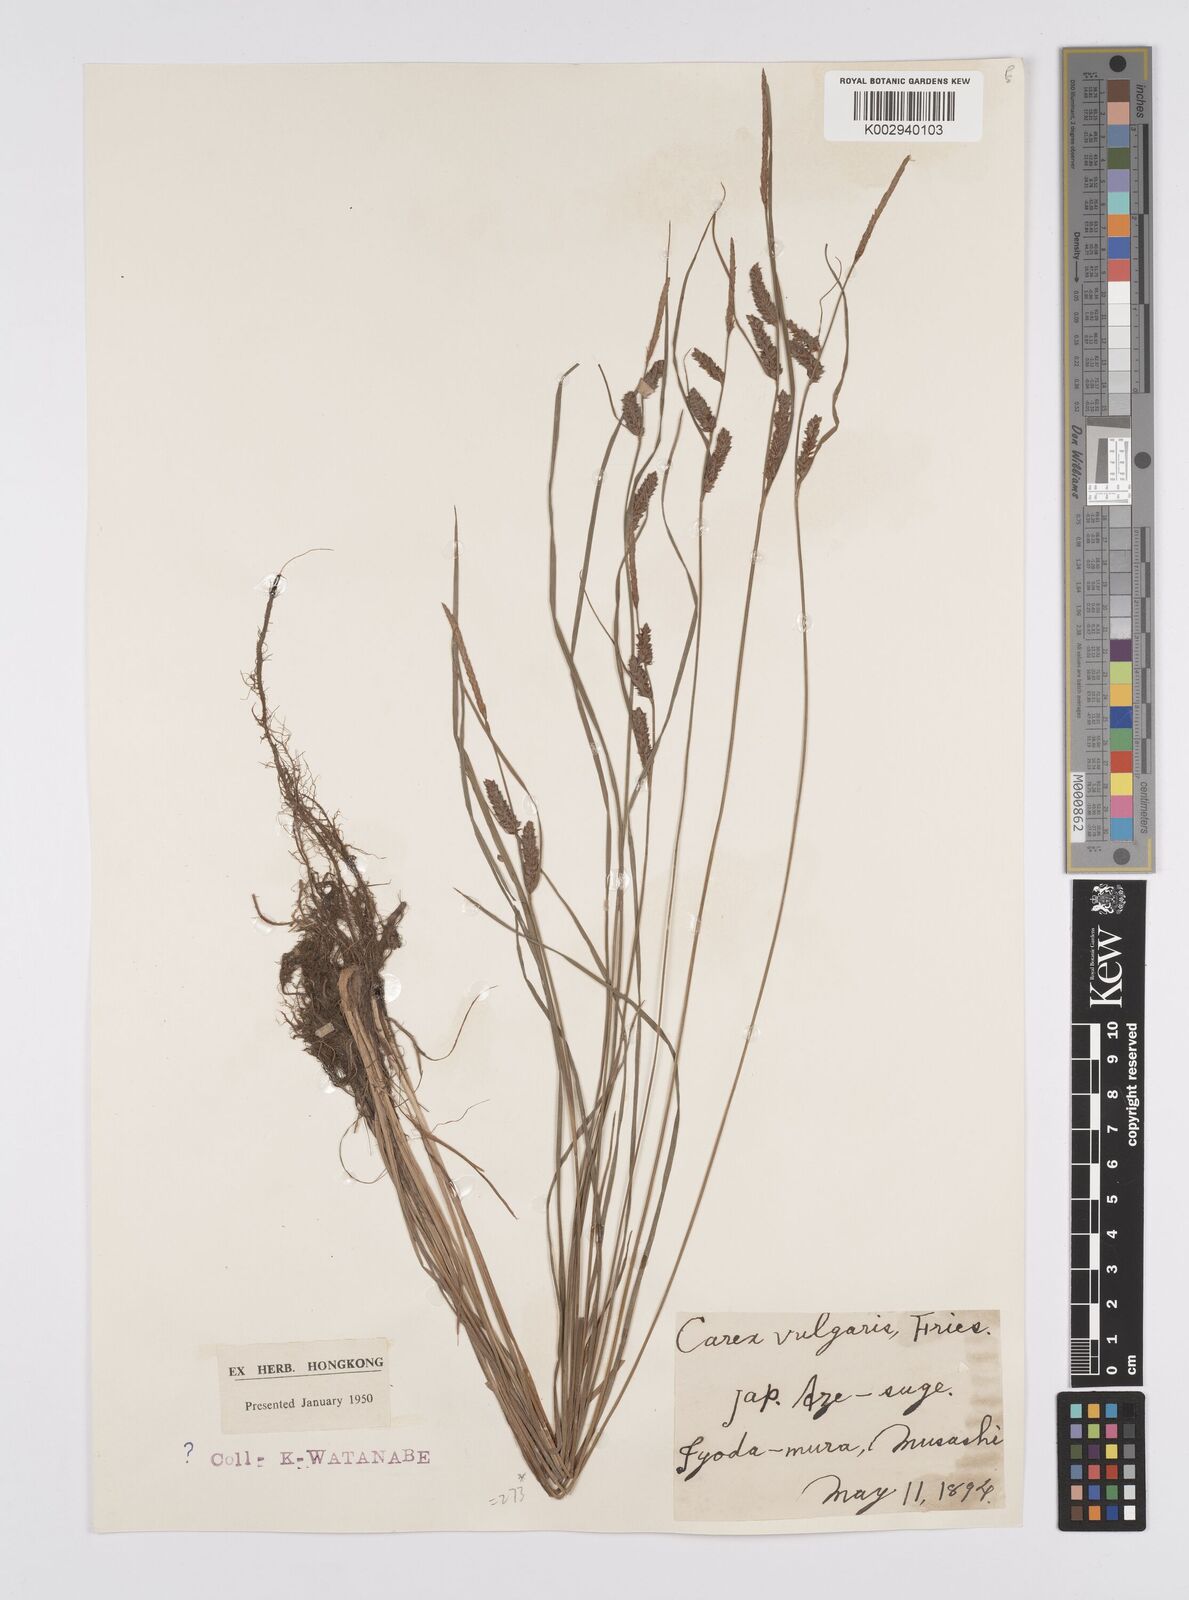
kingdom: Plantae
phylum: Tracheophyta
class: Liliopsida
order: Poales
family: Cyperaceae
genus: Carex
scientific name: Carex thunbergii
